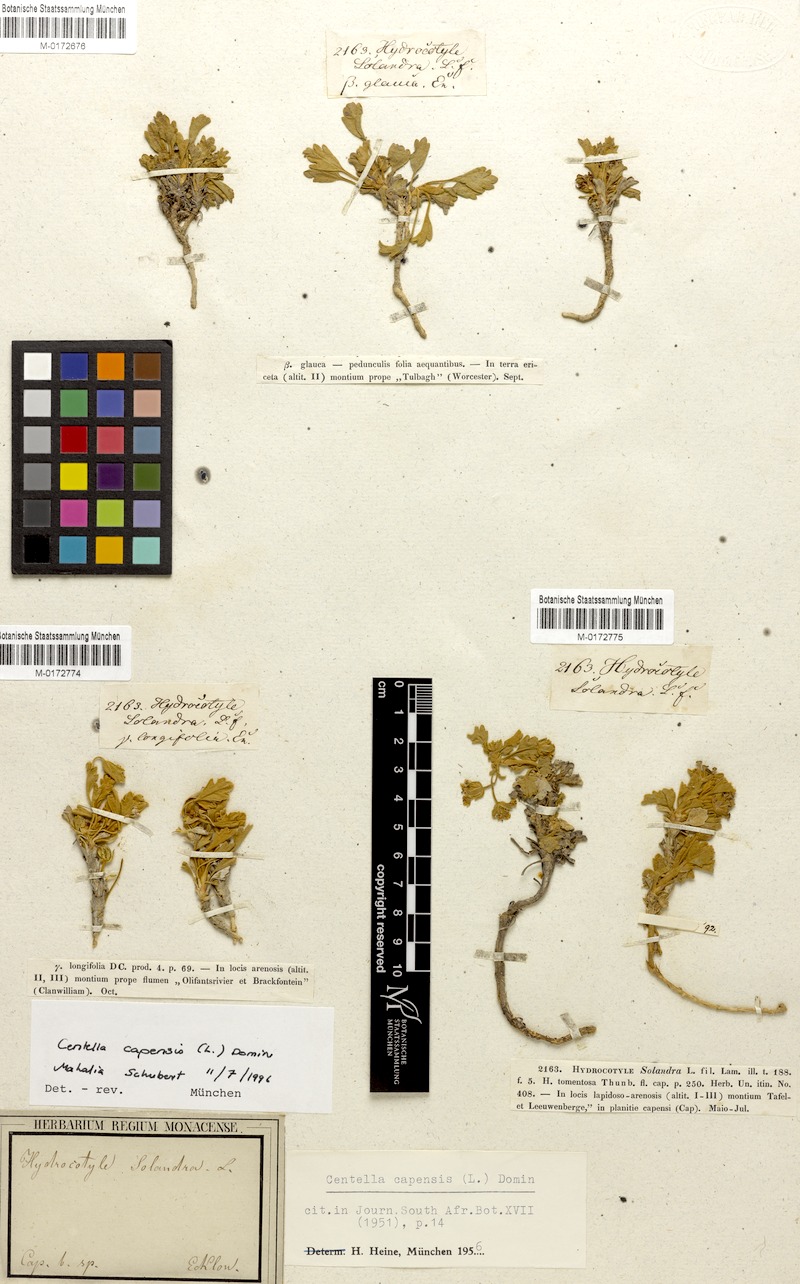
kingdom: Plantae
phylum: Tracheophyta
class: Magnoliopsida
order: Apiales
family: Apiaceae
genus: Centella
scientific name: Centella capensis
